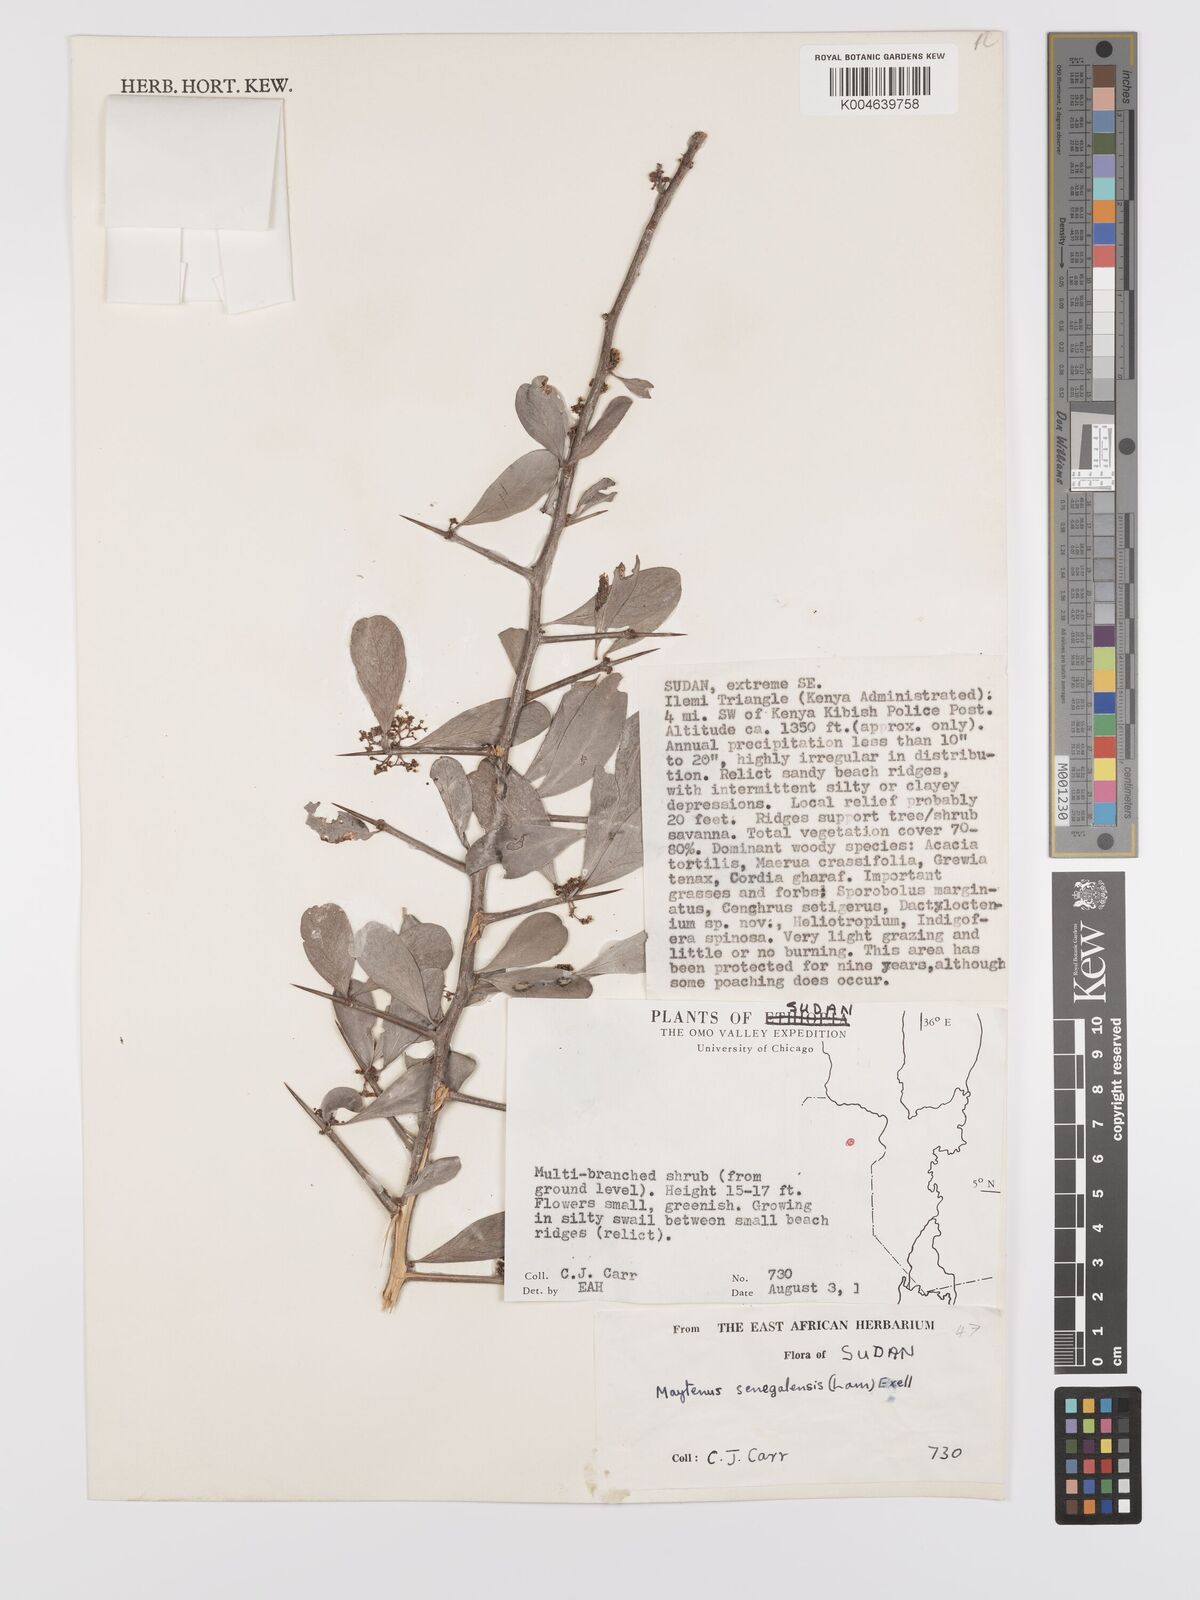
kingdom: Plantae
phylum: Tracheophyta
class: Magnoliopsida
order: Celastrales
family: Celastraceae
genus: Gymnosporia
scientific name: Gymnosporia senegalensis
